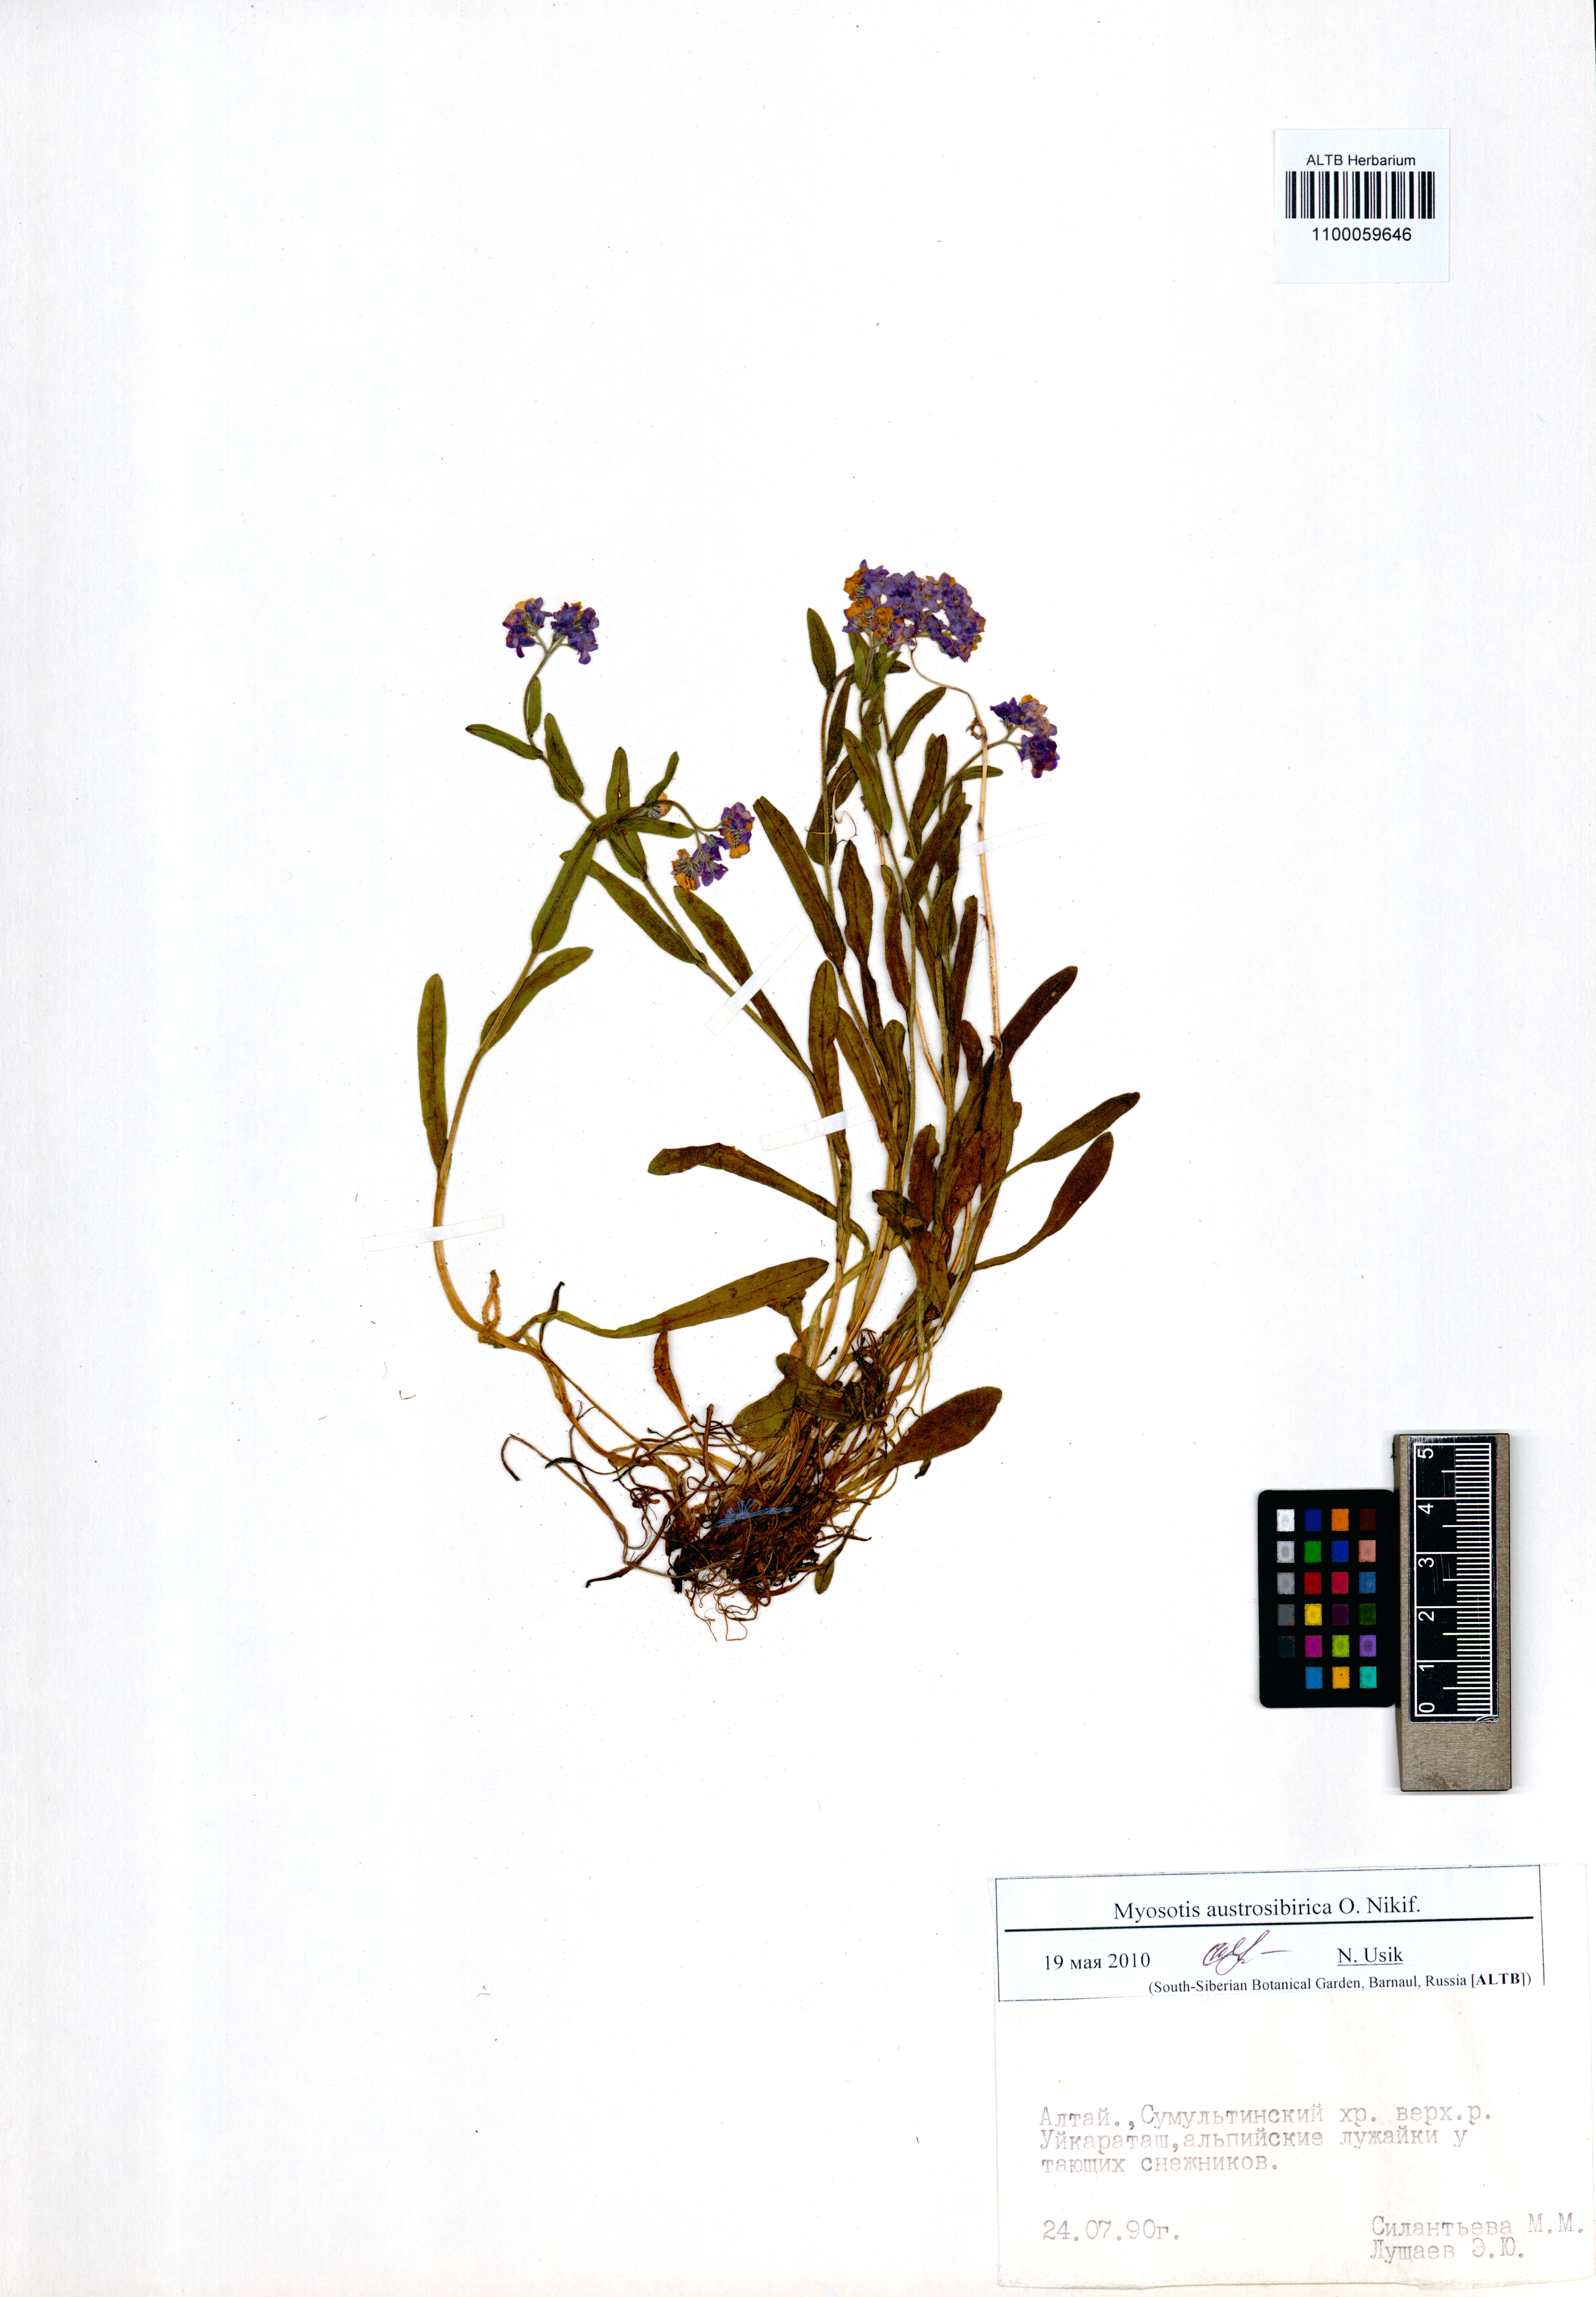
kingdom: Plantae
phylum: Tracheophyta
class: Magnoliopsida
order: Boraginales
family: Boraginaceae
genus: Myosotis
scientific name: Myosotis austrosibirica
